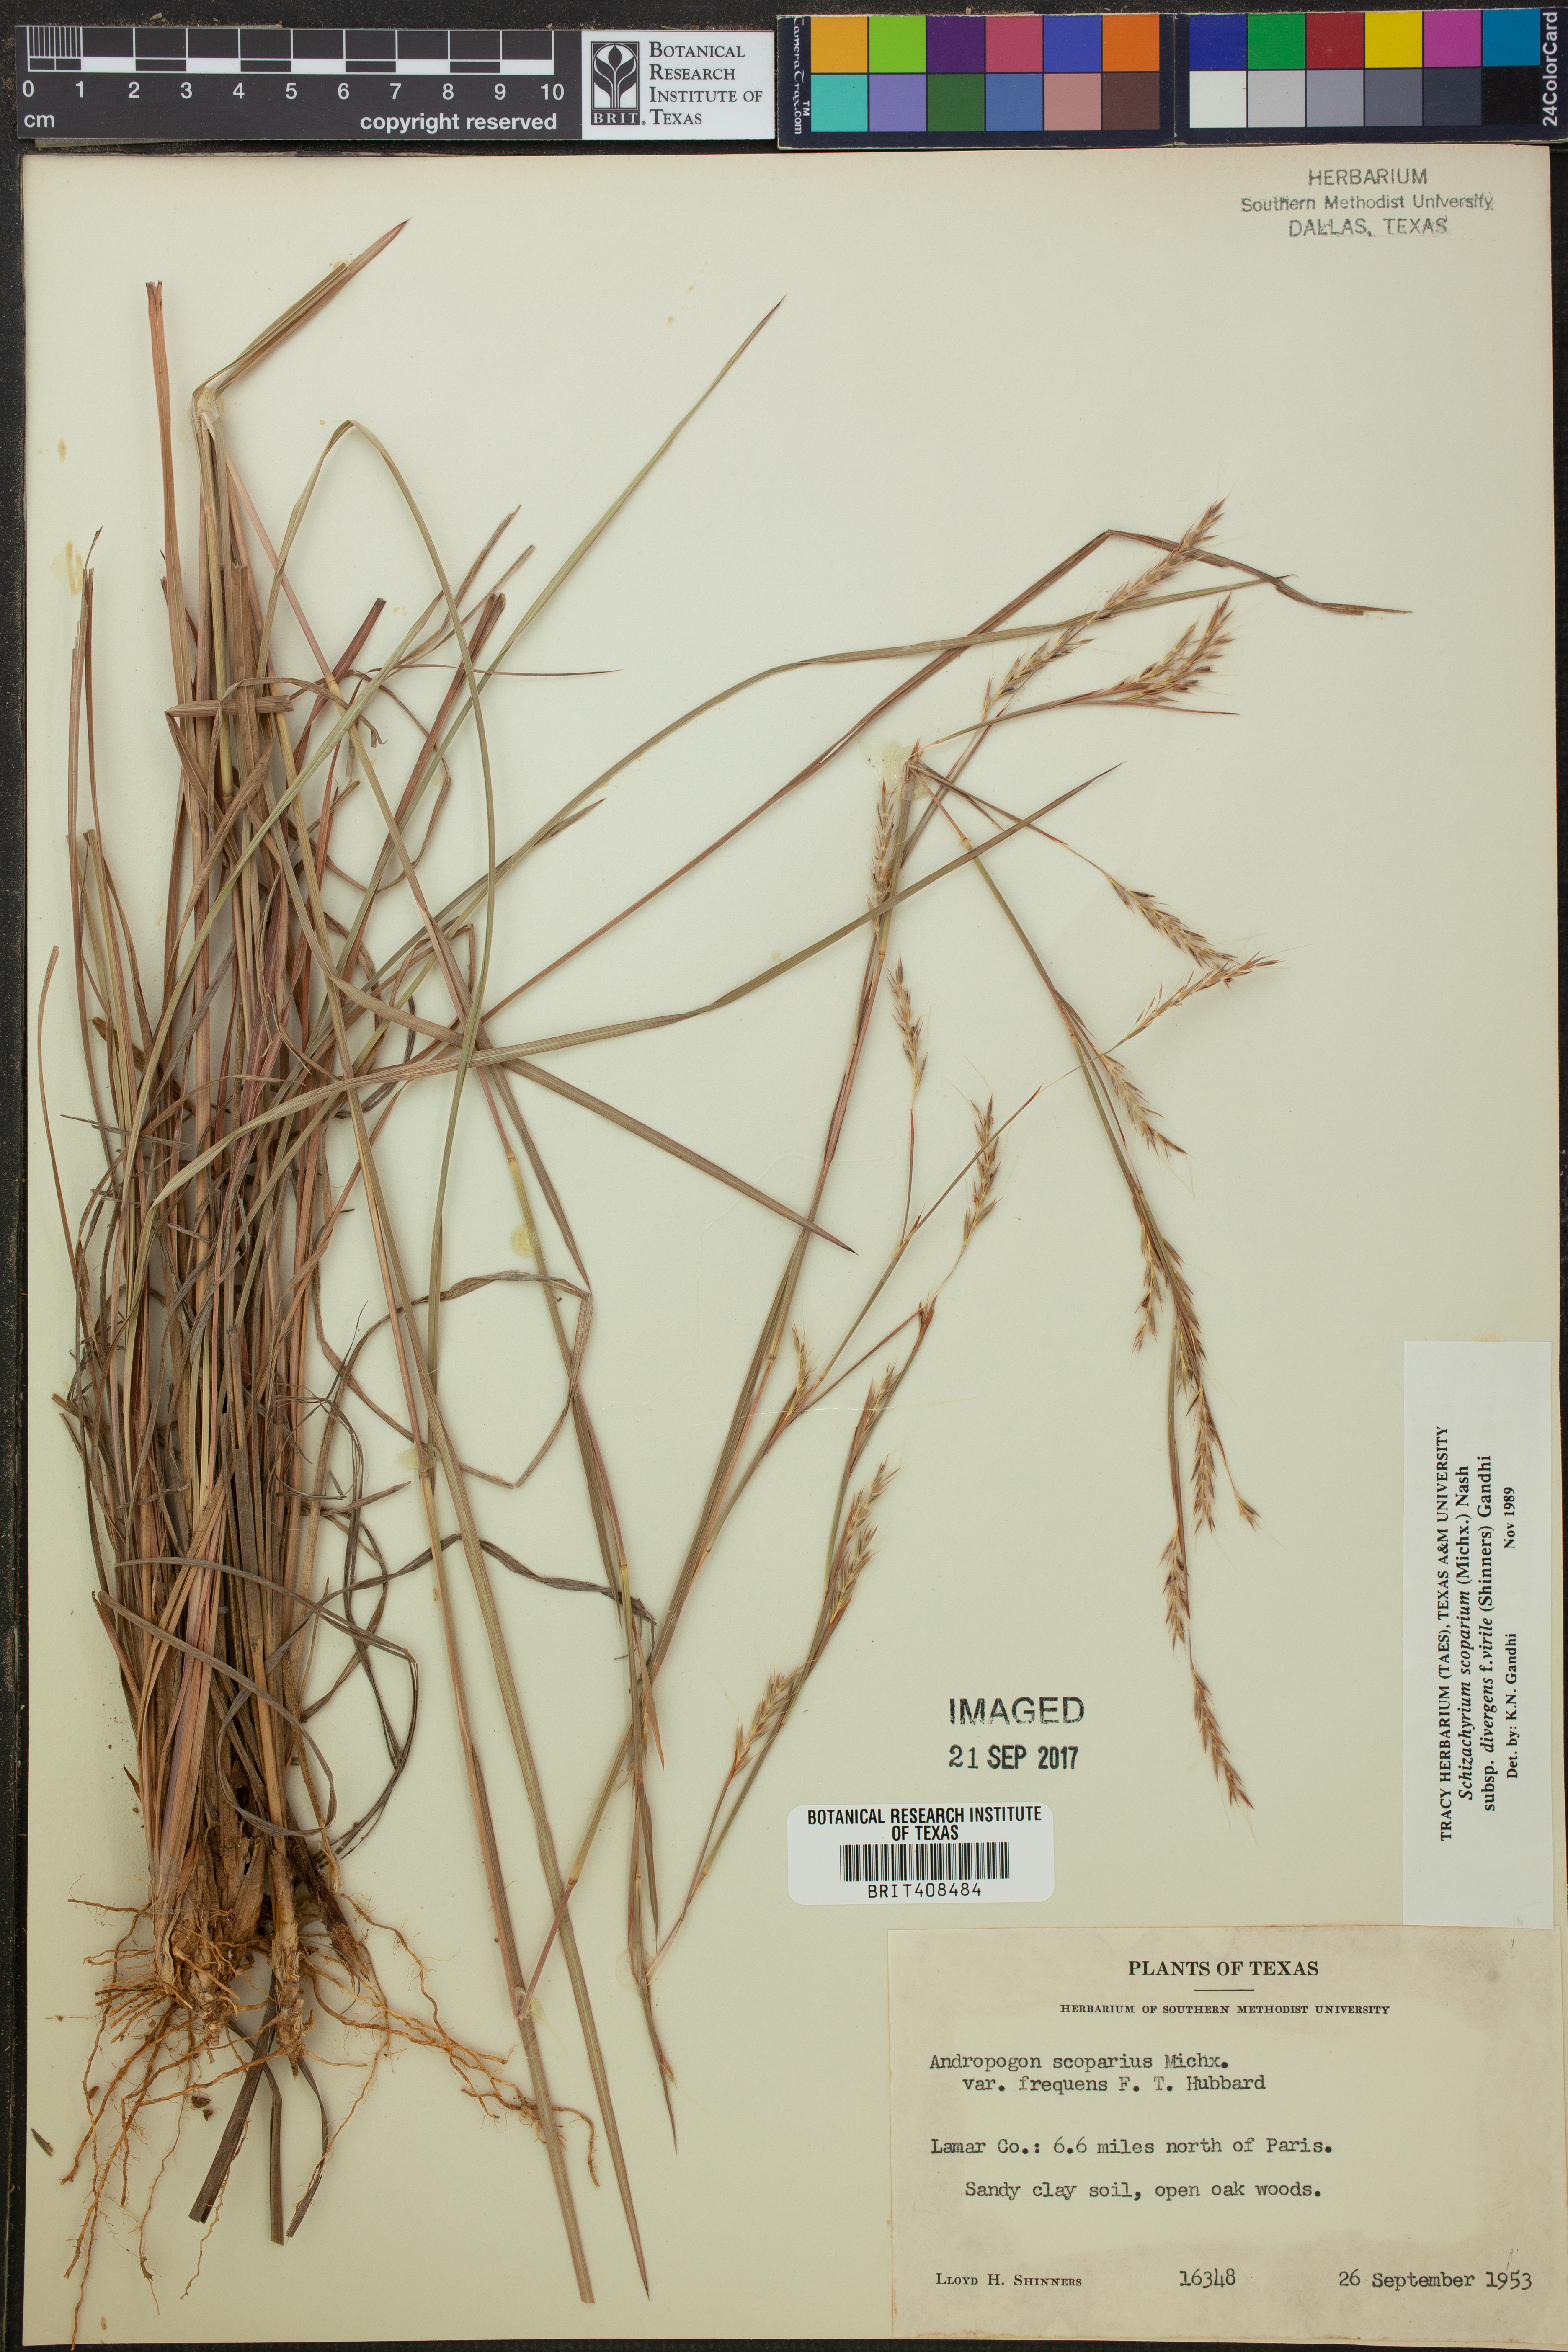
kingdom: Plantae
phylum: Tracheophyta
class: Liliopsida
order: Poales
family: Poaceae
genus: Schizachyrium
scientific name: Schizachyrium scoparium
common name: Little bluestem
